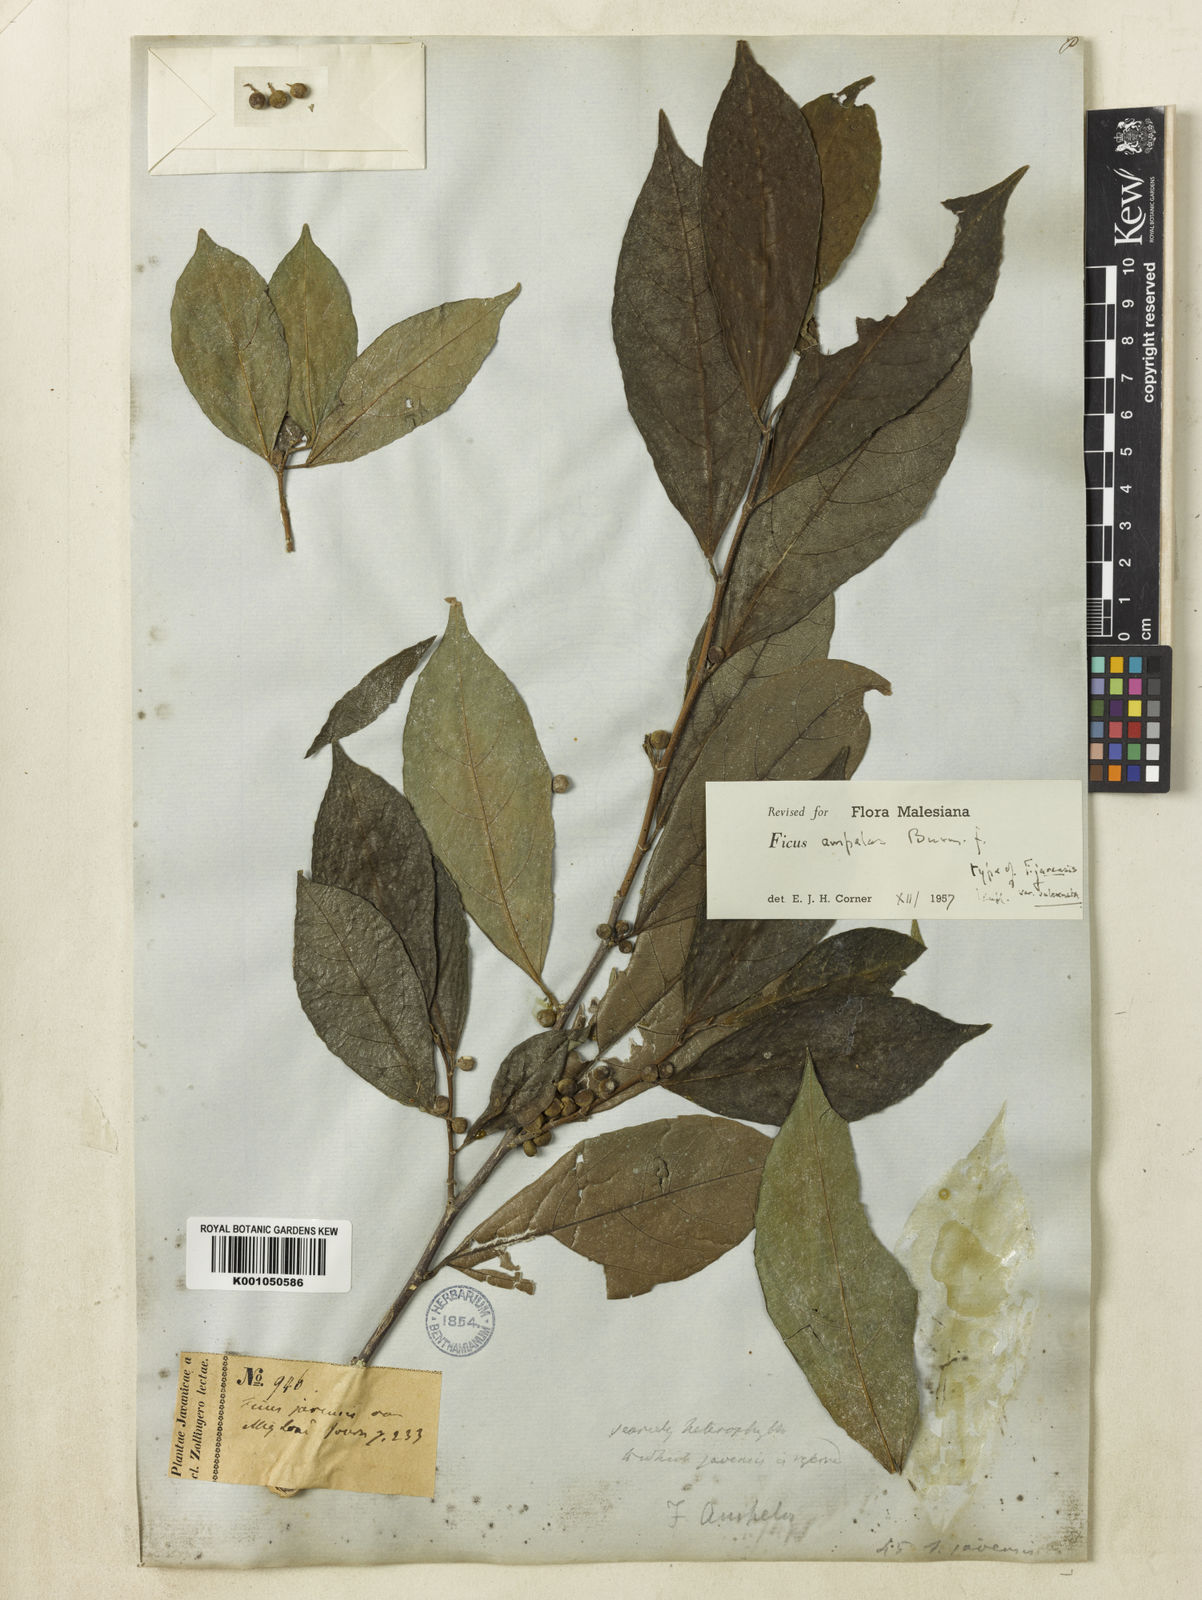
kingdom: Plantae
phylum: Tracheophyta
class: Magnoliopsida
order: Rosales
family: Moraceae
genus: Ficus
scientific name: Ficus
